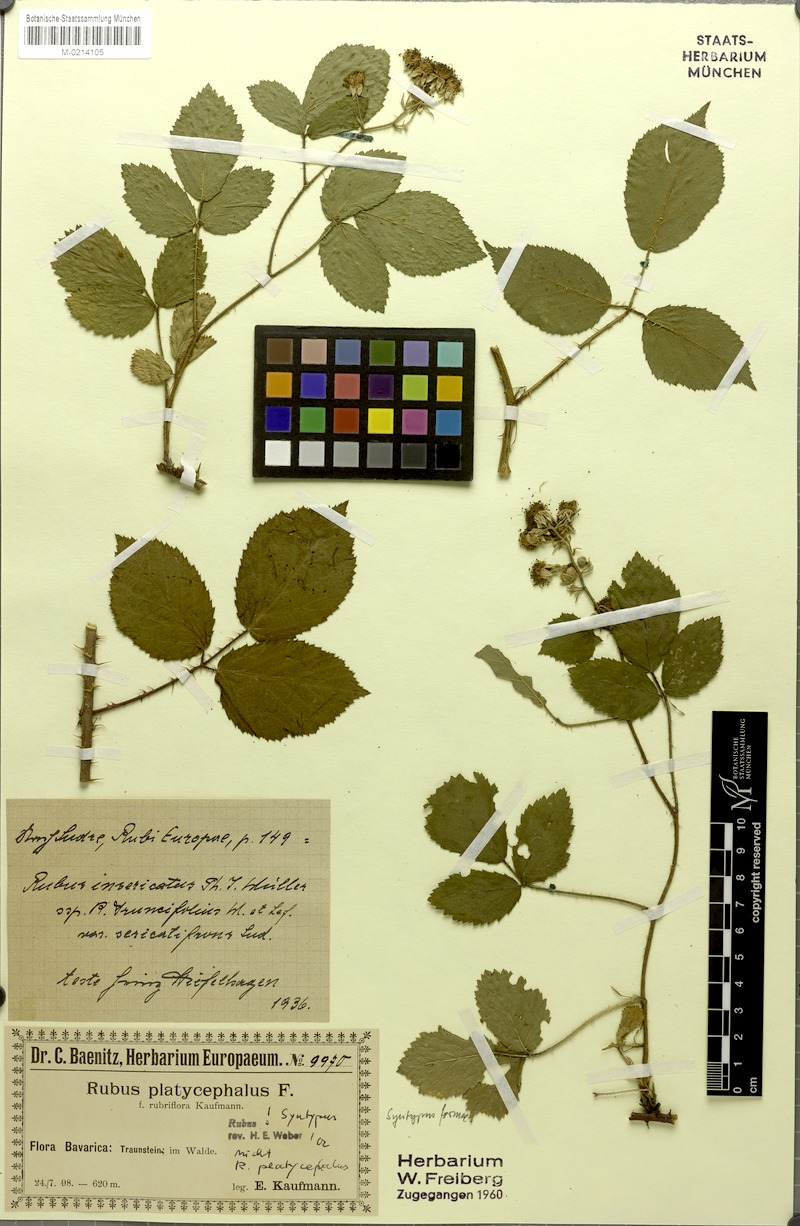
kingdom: Plantae
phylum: Tracheophyta
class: Magnoliopsida
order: Rosales
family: Rosaceae
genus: Rubus
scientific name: Rubus
